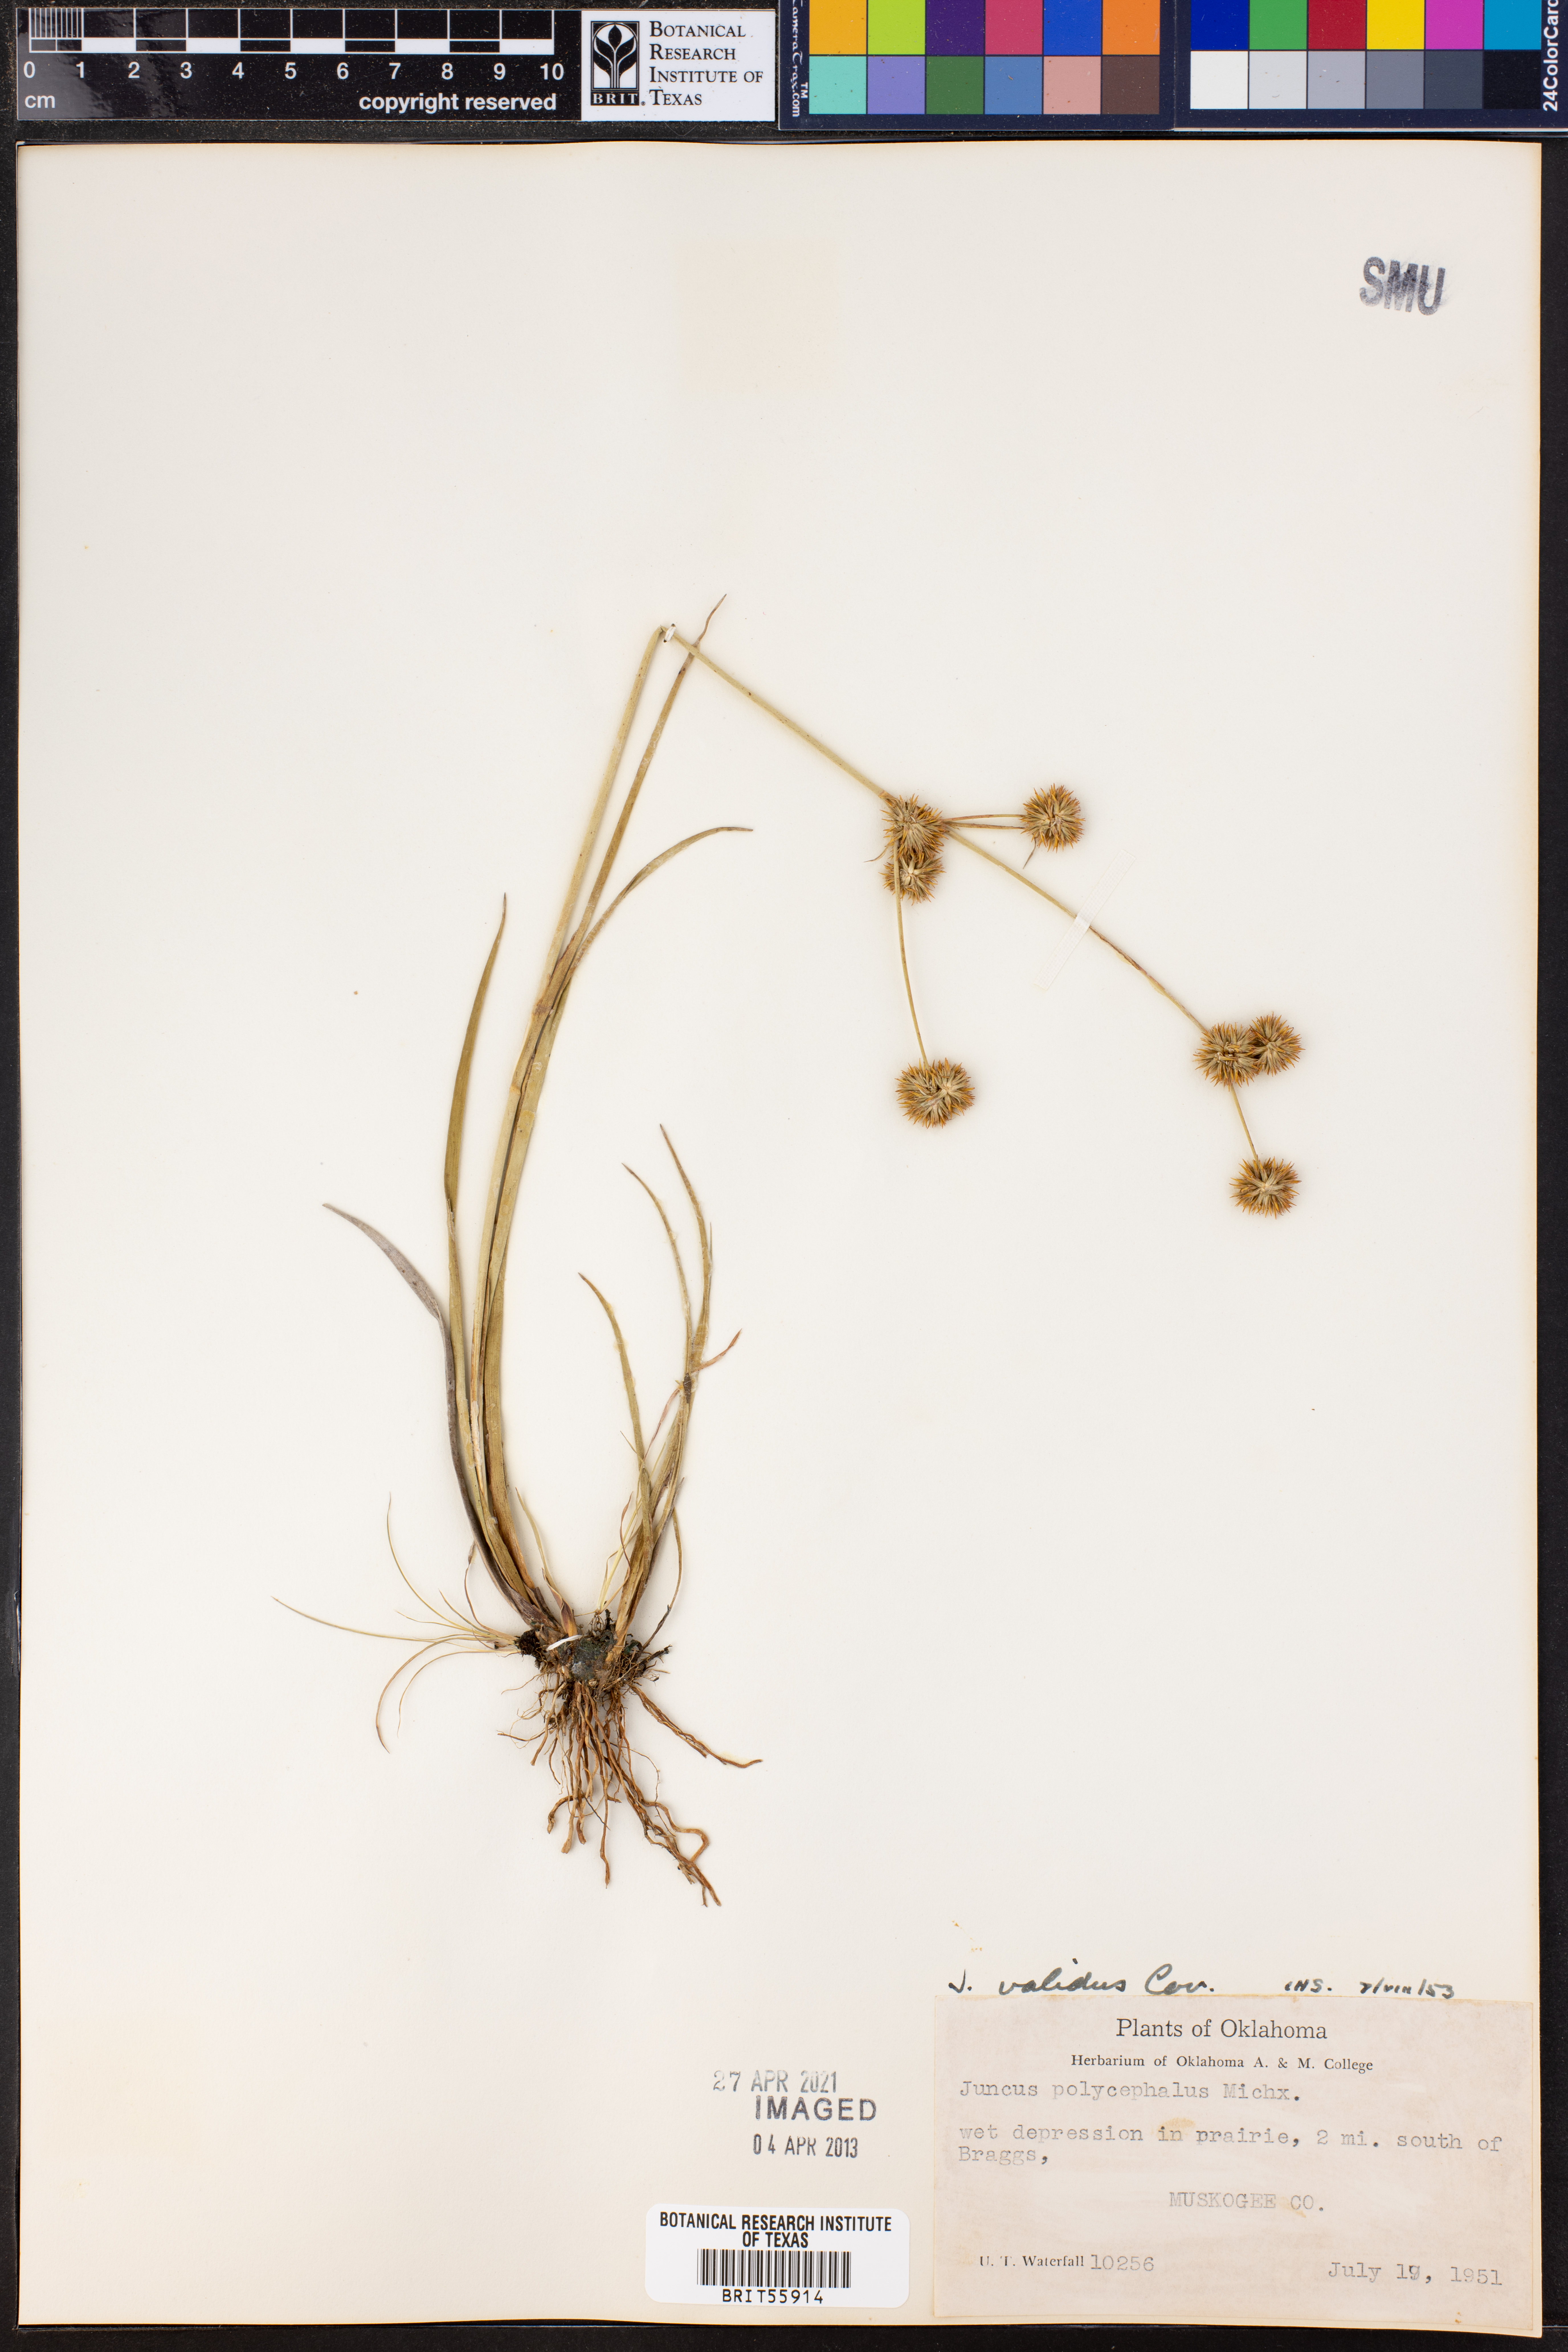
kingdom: Plantae
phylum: Tracheophyta
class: Liliopsida
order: Poales
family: Juncaceae
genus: Juncus
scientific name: Juncus validus
